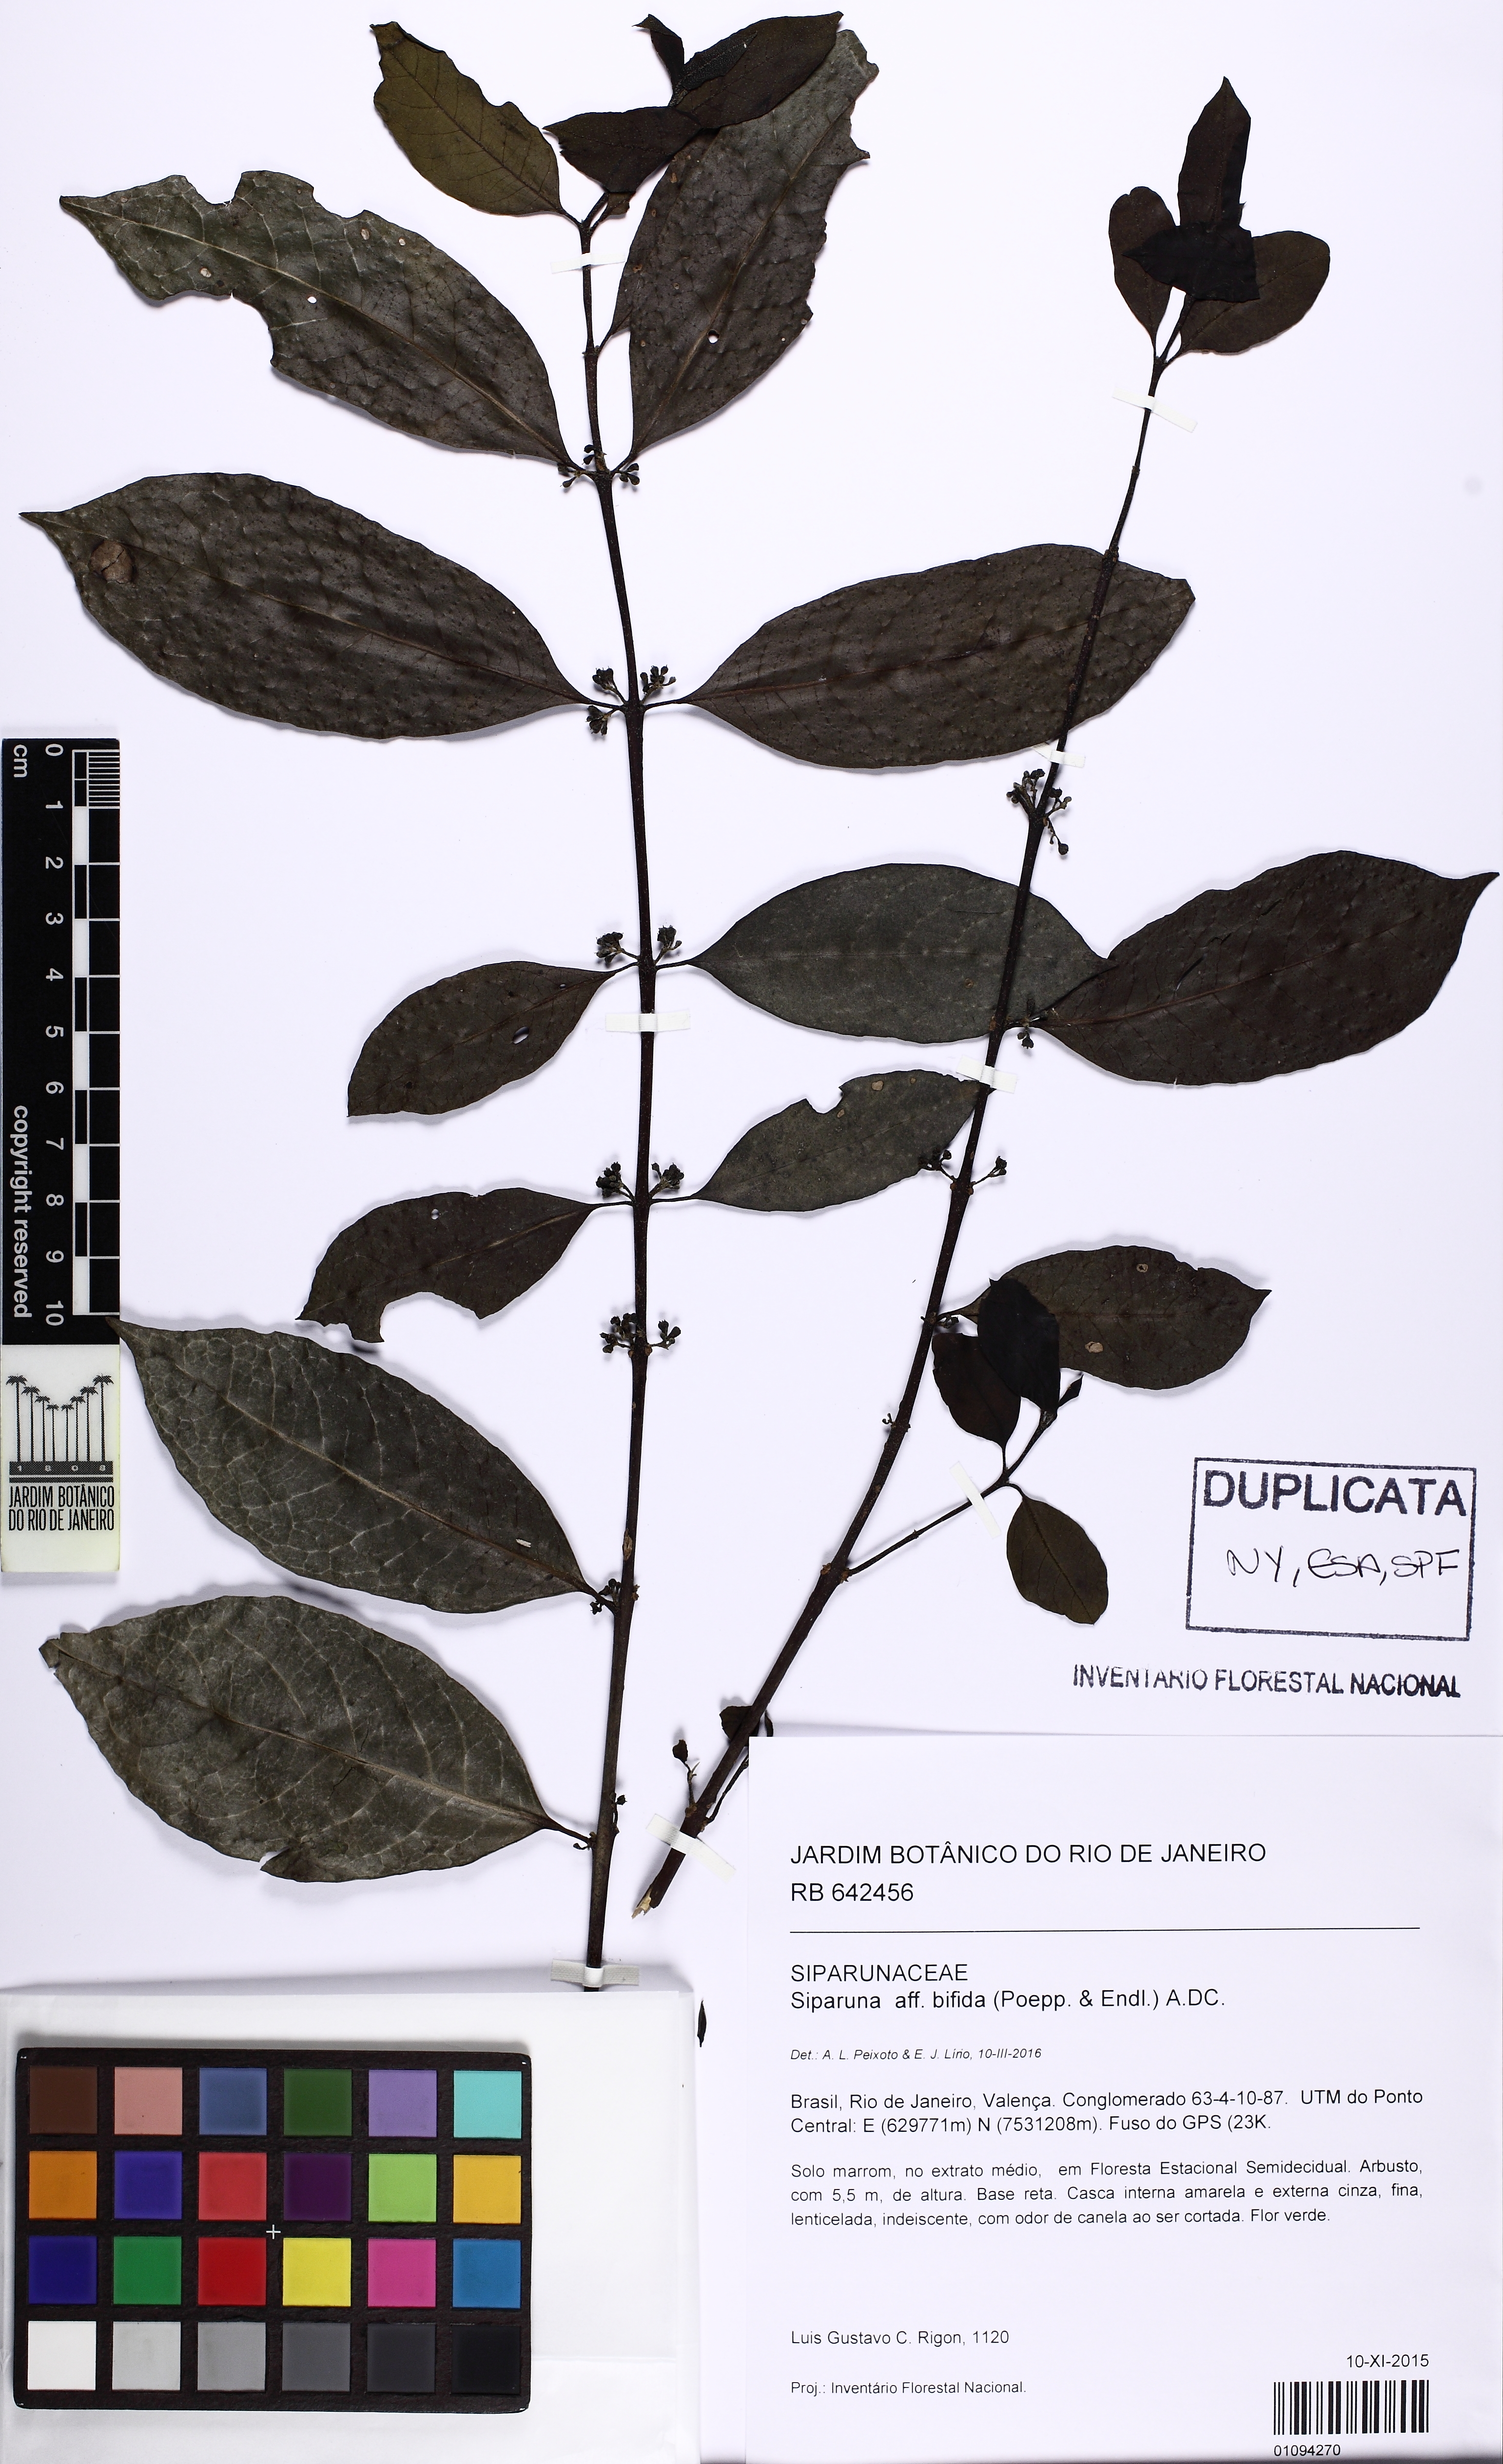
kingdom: Plantae
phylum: Tracheophyta
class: Magnoliopsida
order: Laurales
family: Siparunaceae
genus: Siparuna
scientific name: Siparuna guianensis
